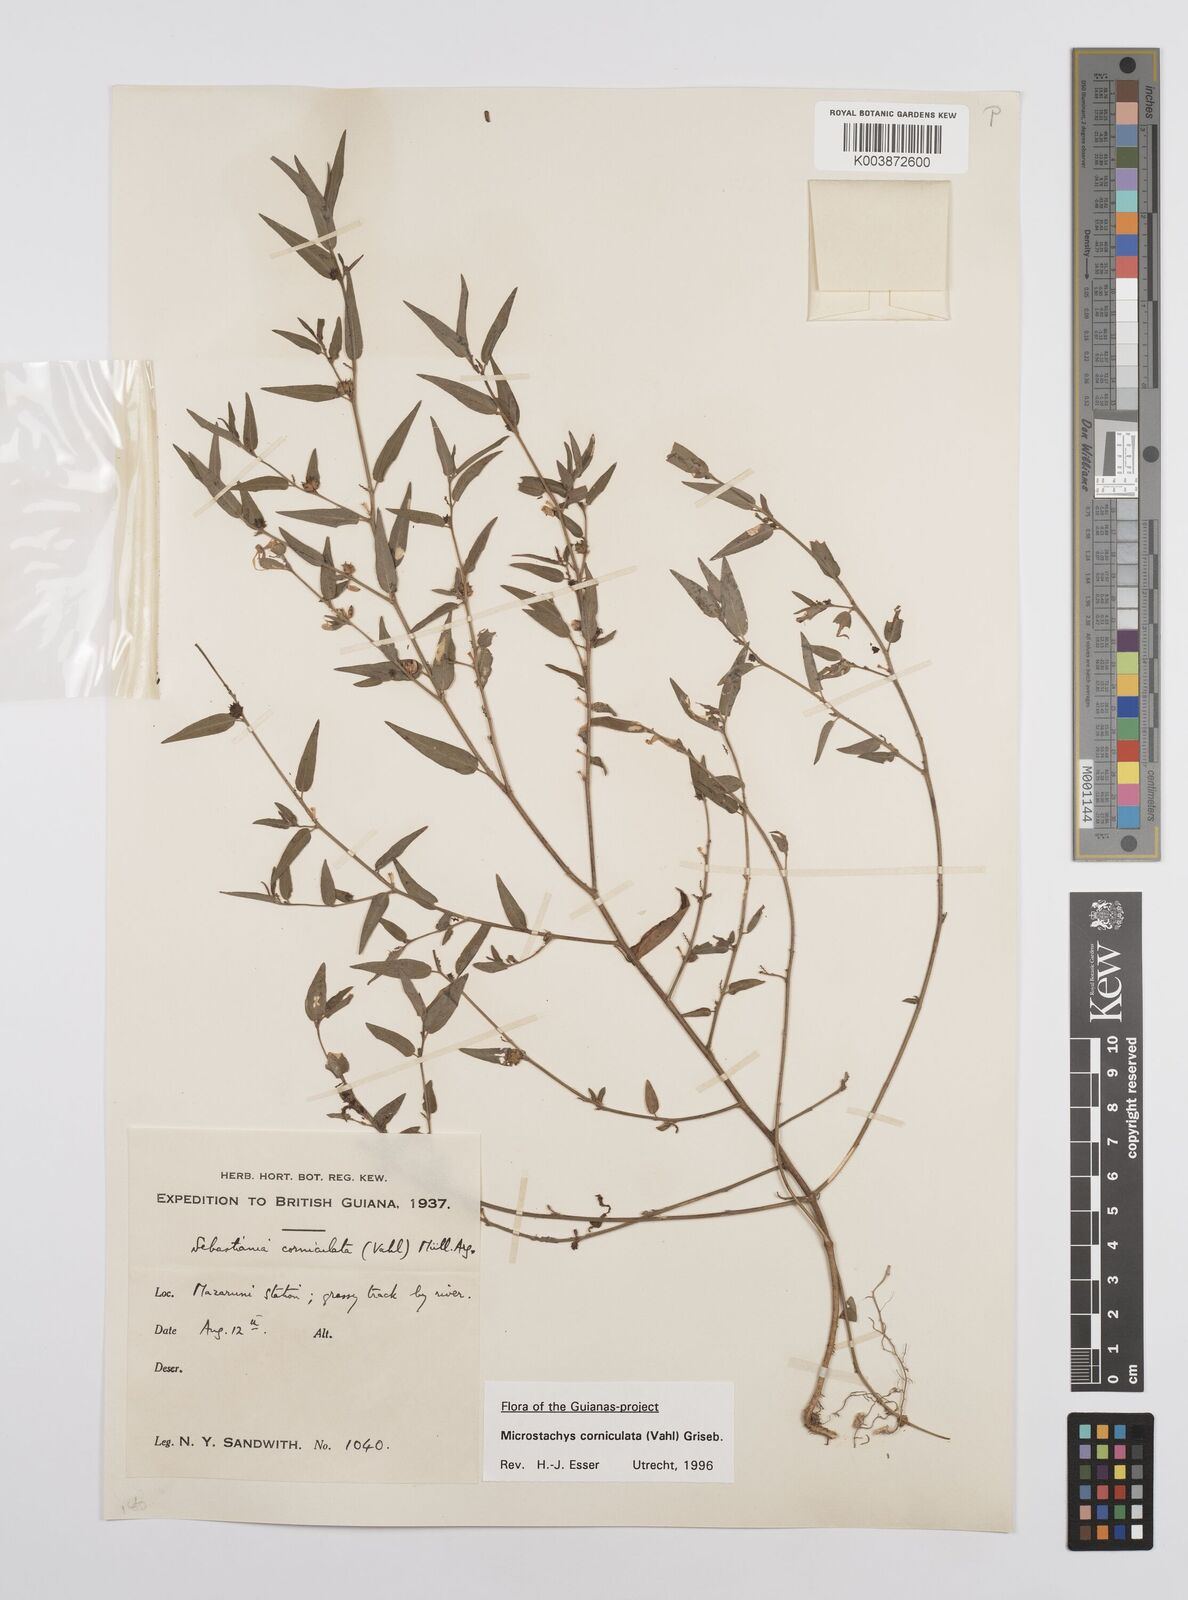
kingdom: Plantae
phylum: Tracheophyta
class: Magnoliopsida
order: Malpighiales
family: Euphorbiaceae
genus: Microstachys
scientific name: Microstachys corniculata
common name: Hato tejas
